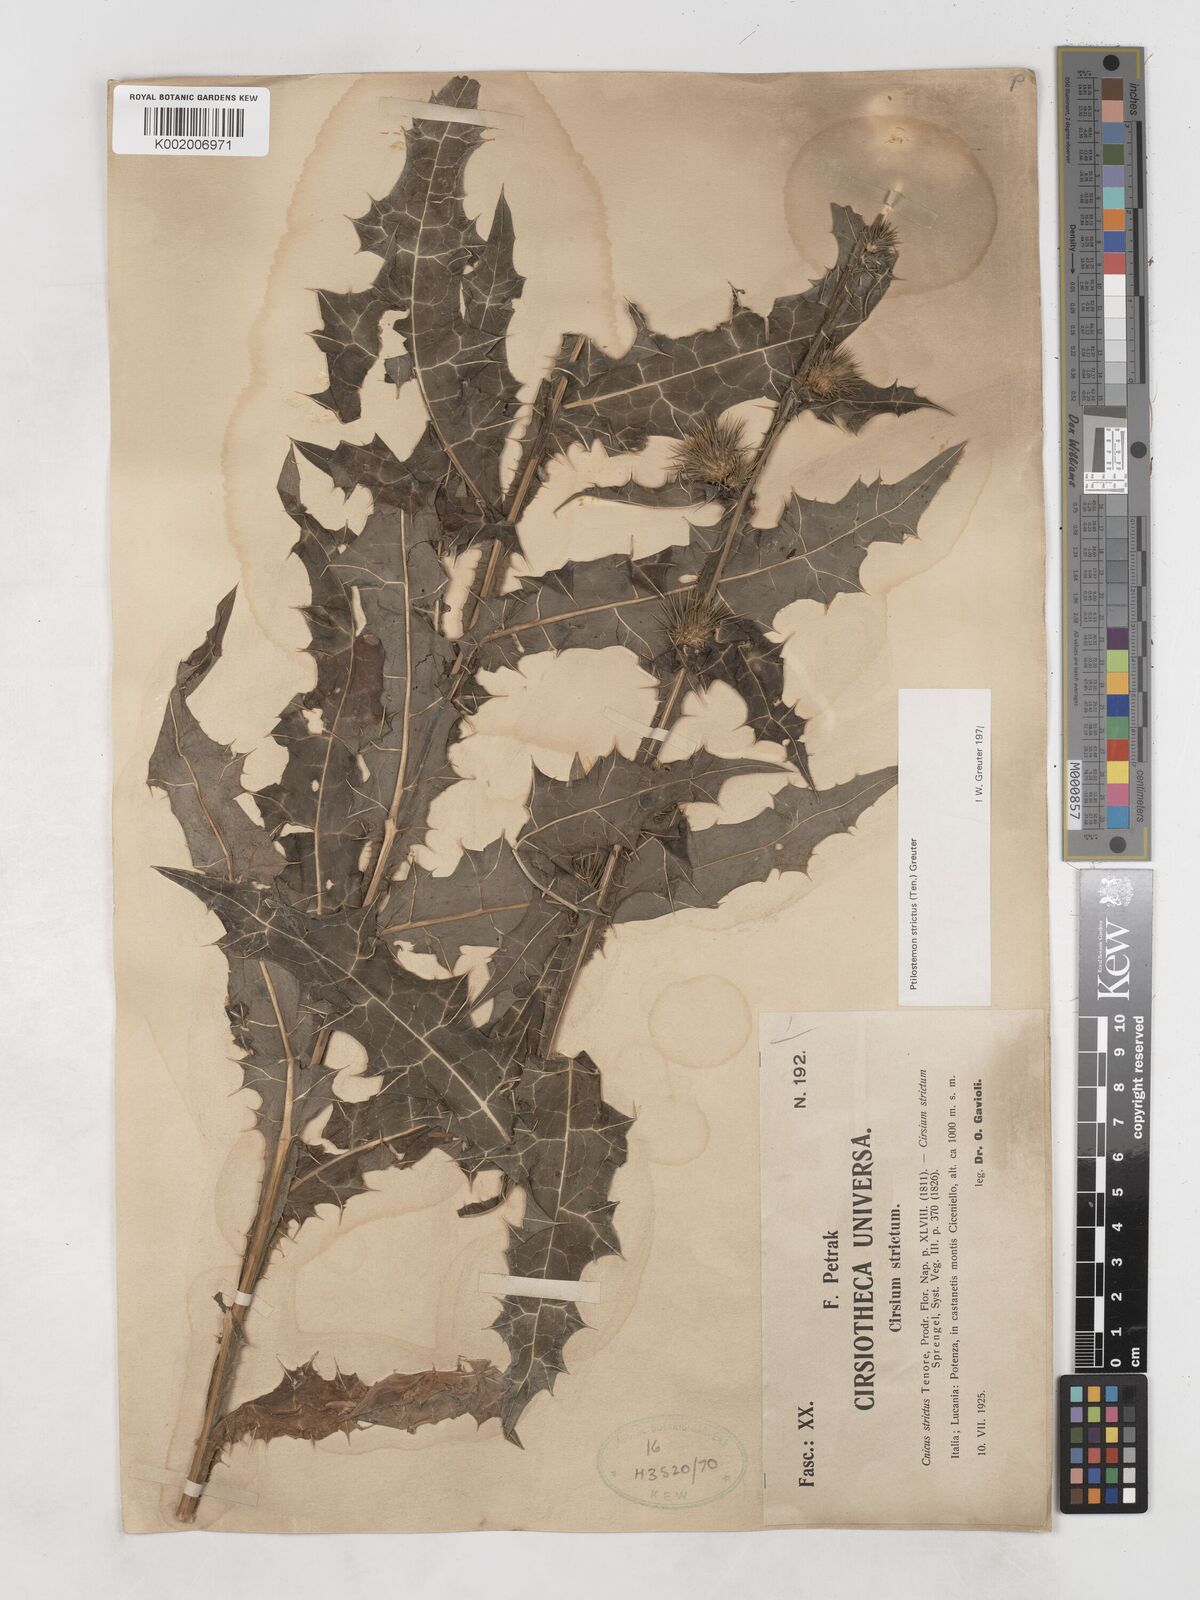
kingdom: Plantae
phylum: Tracheophyta
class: Magnoliopsida
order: Asterales
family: Asteraceae
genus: Ptilostemon
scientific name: Ptilostemon strictus
